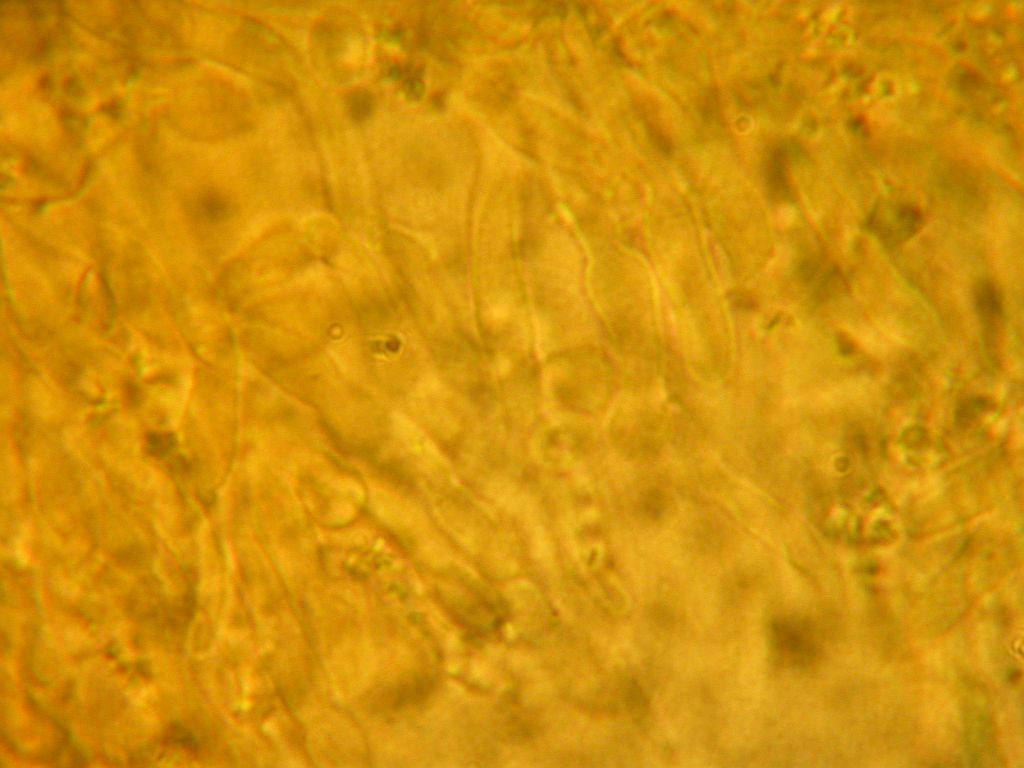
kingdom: Fungi
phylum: Basidiomycota
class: Agaricomycetes
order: Hymenochaetales
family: Schizoporaceae
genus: Xylodon
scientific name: Xylodon subtropicus
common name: labyrint-tandsvamp
